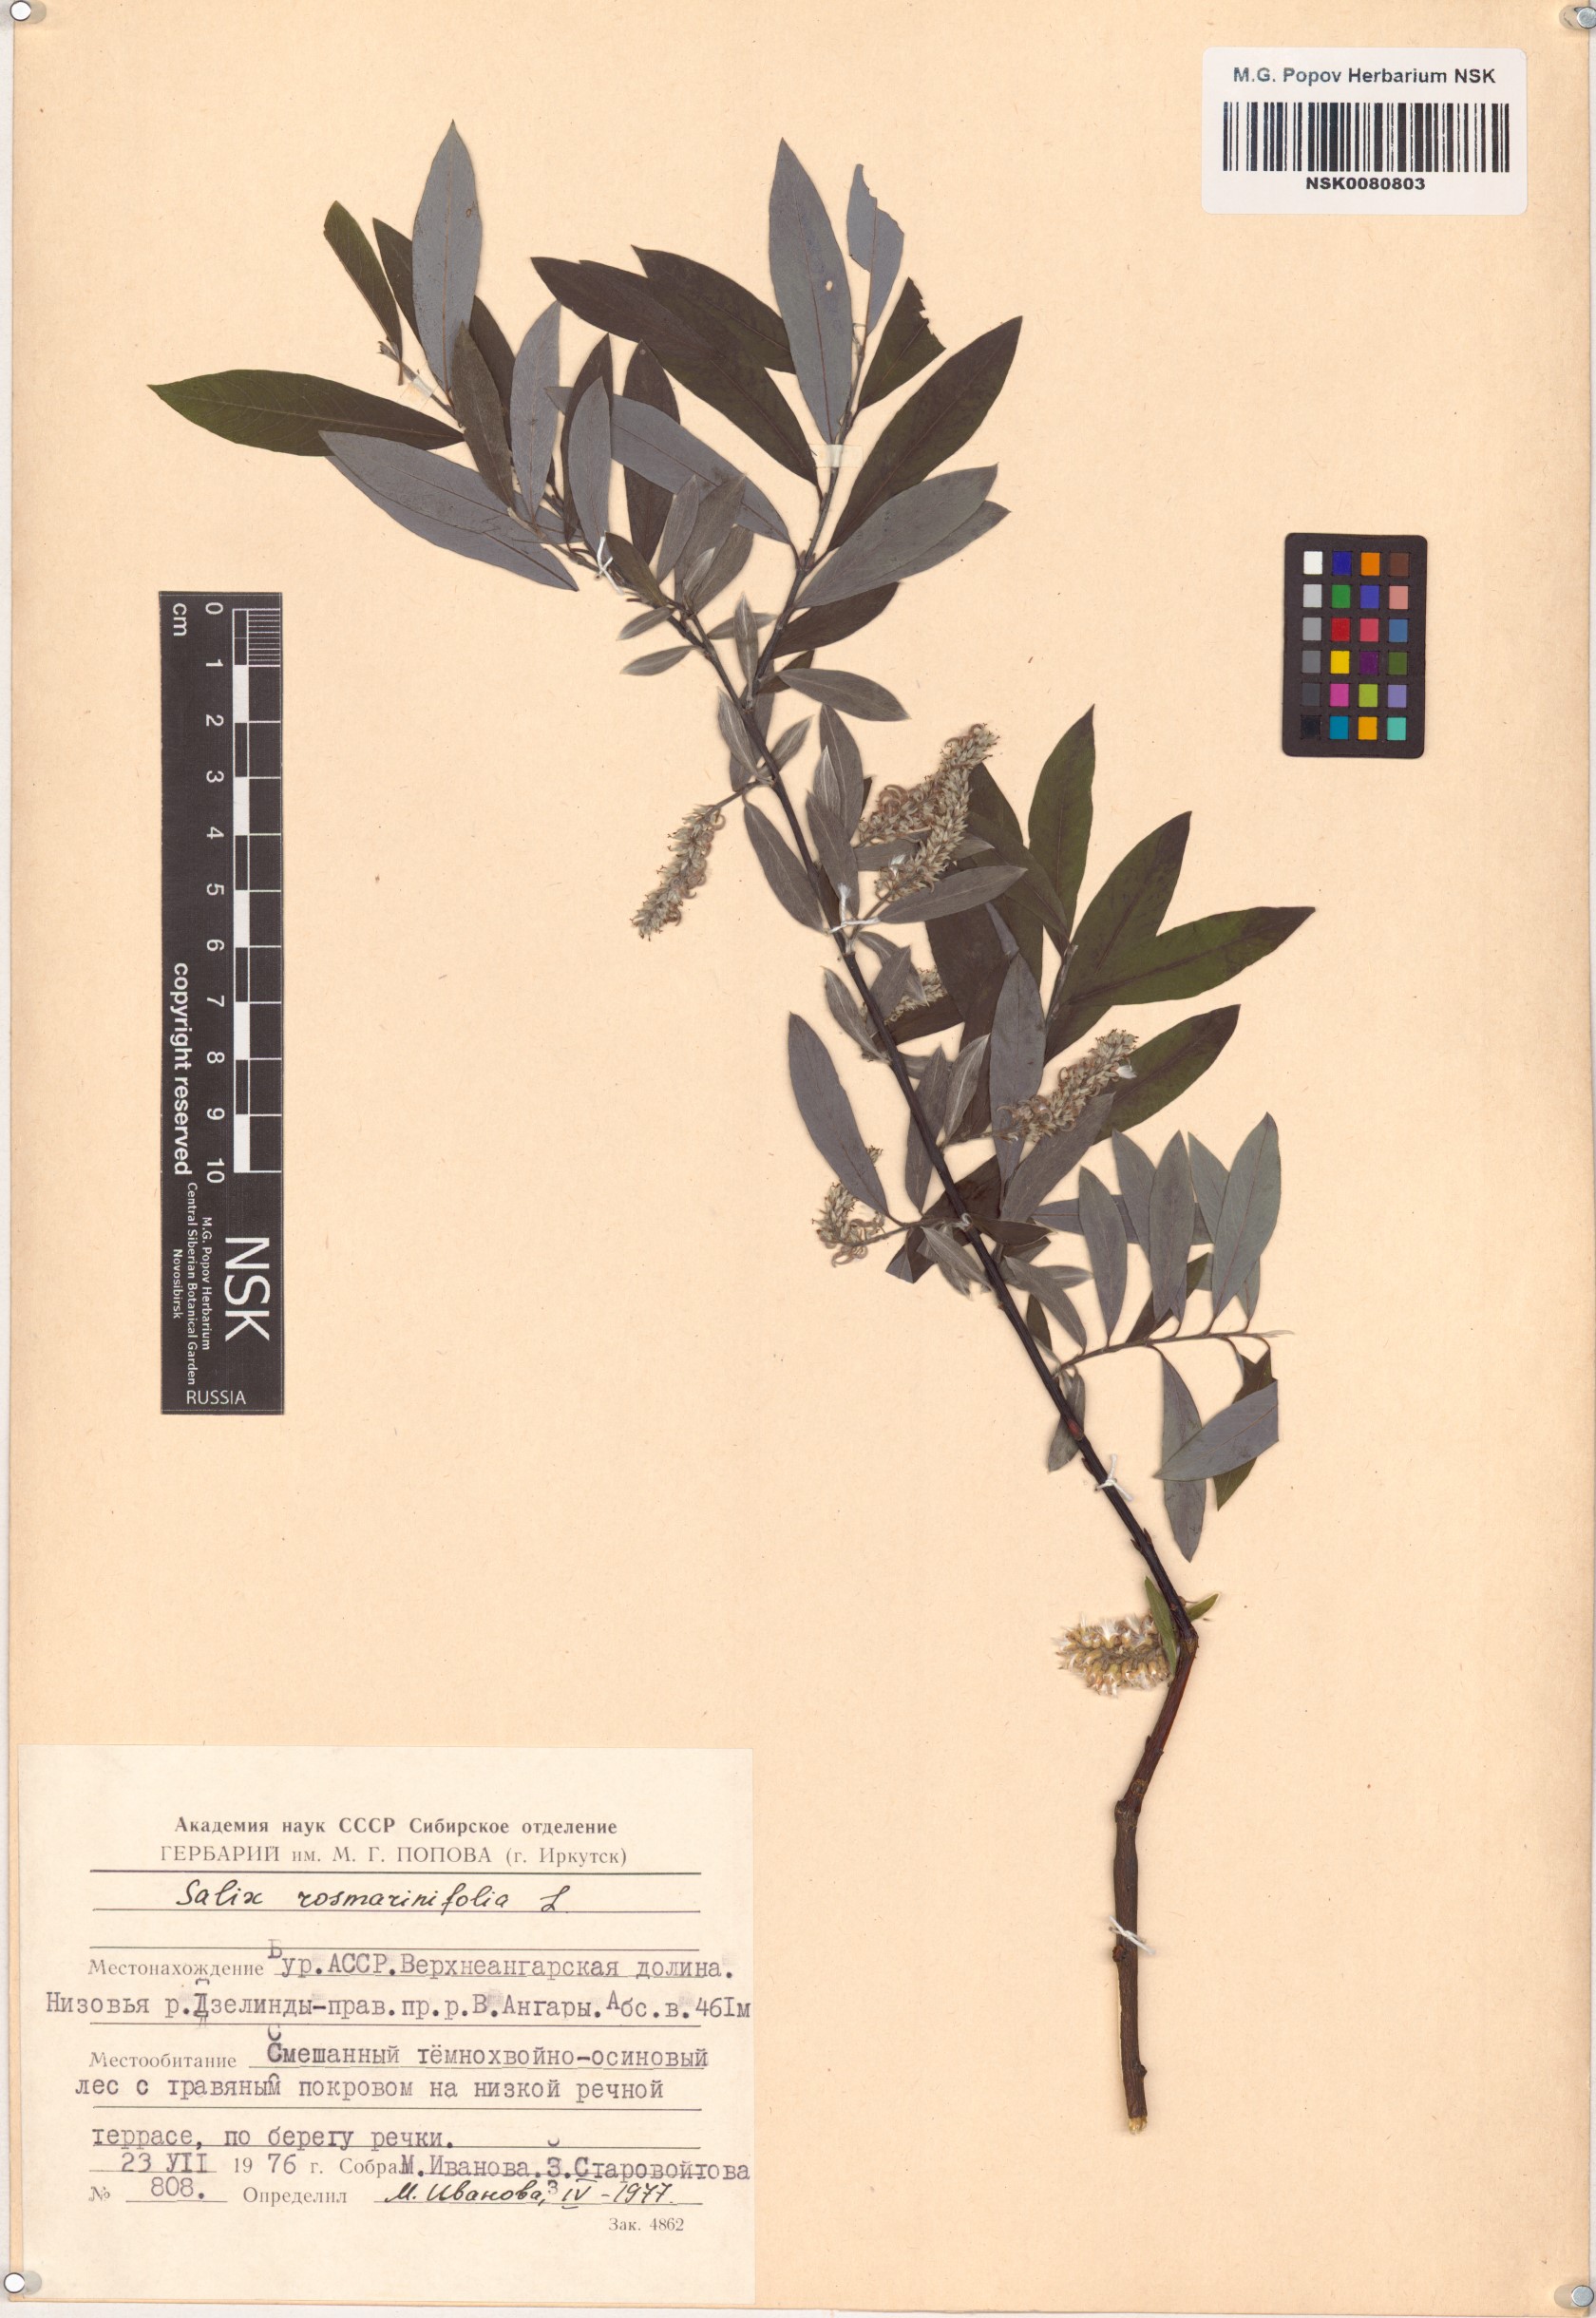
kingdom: Plantae
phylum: Tracheophyta
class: Magnoliopsida
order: Malpighiales
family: Salicaceae
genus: Salix
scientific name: Salix rosmarinifolia
